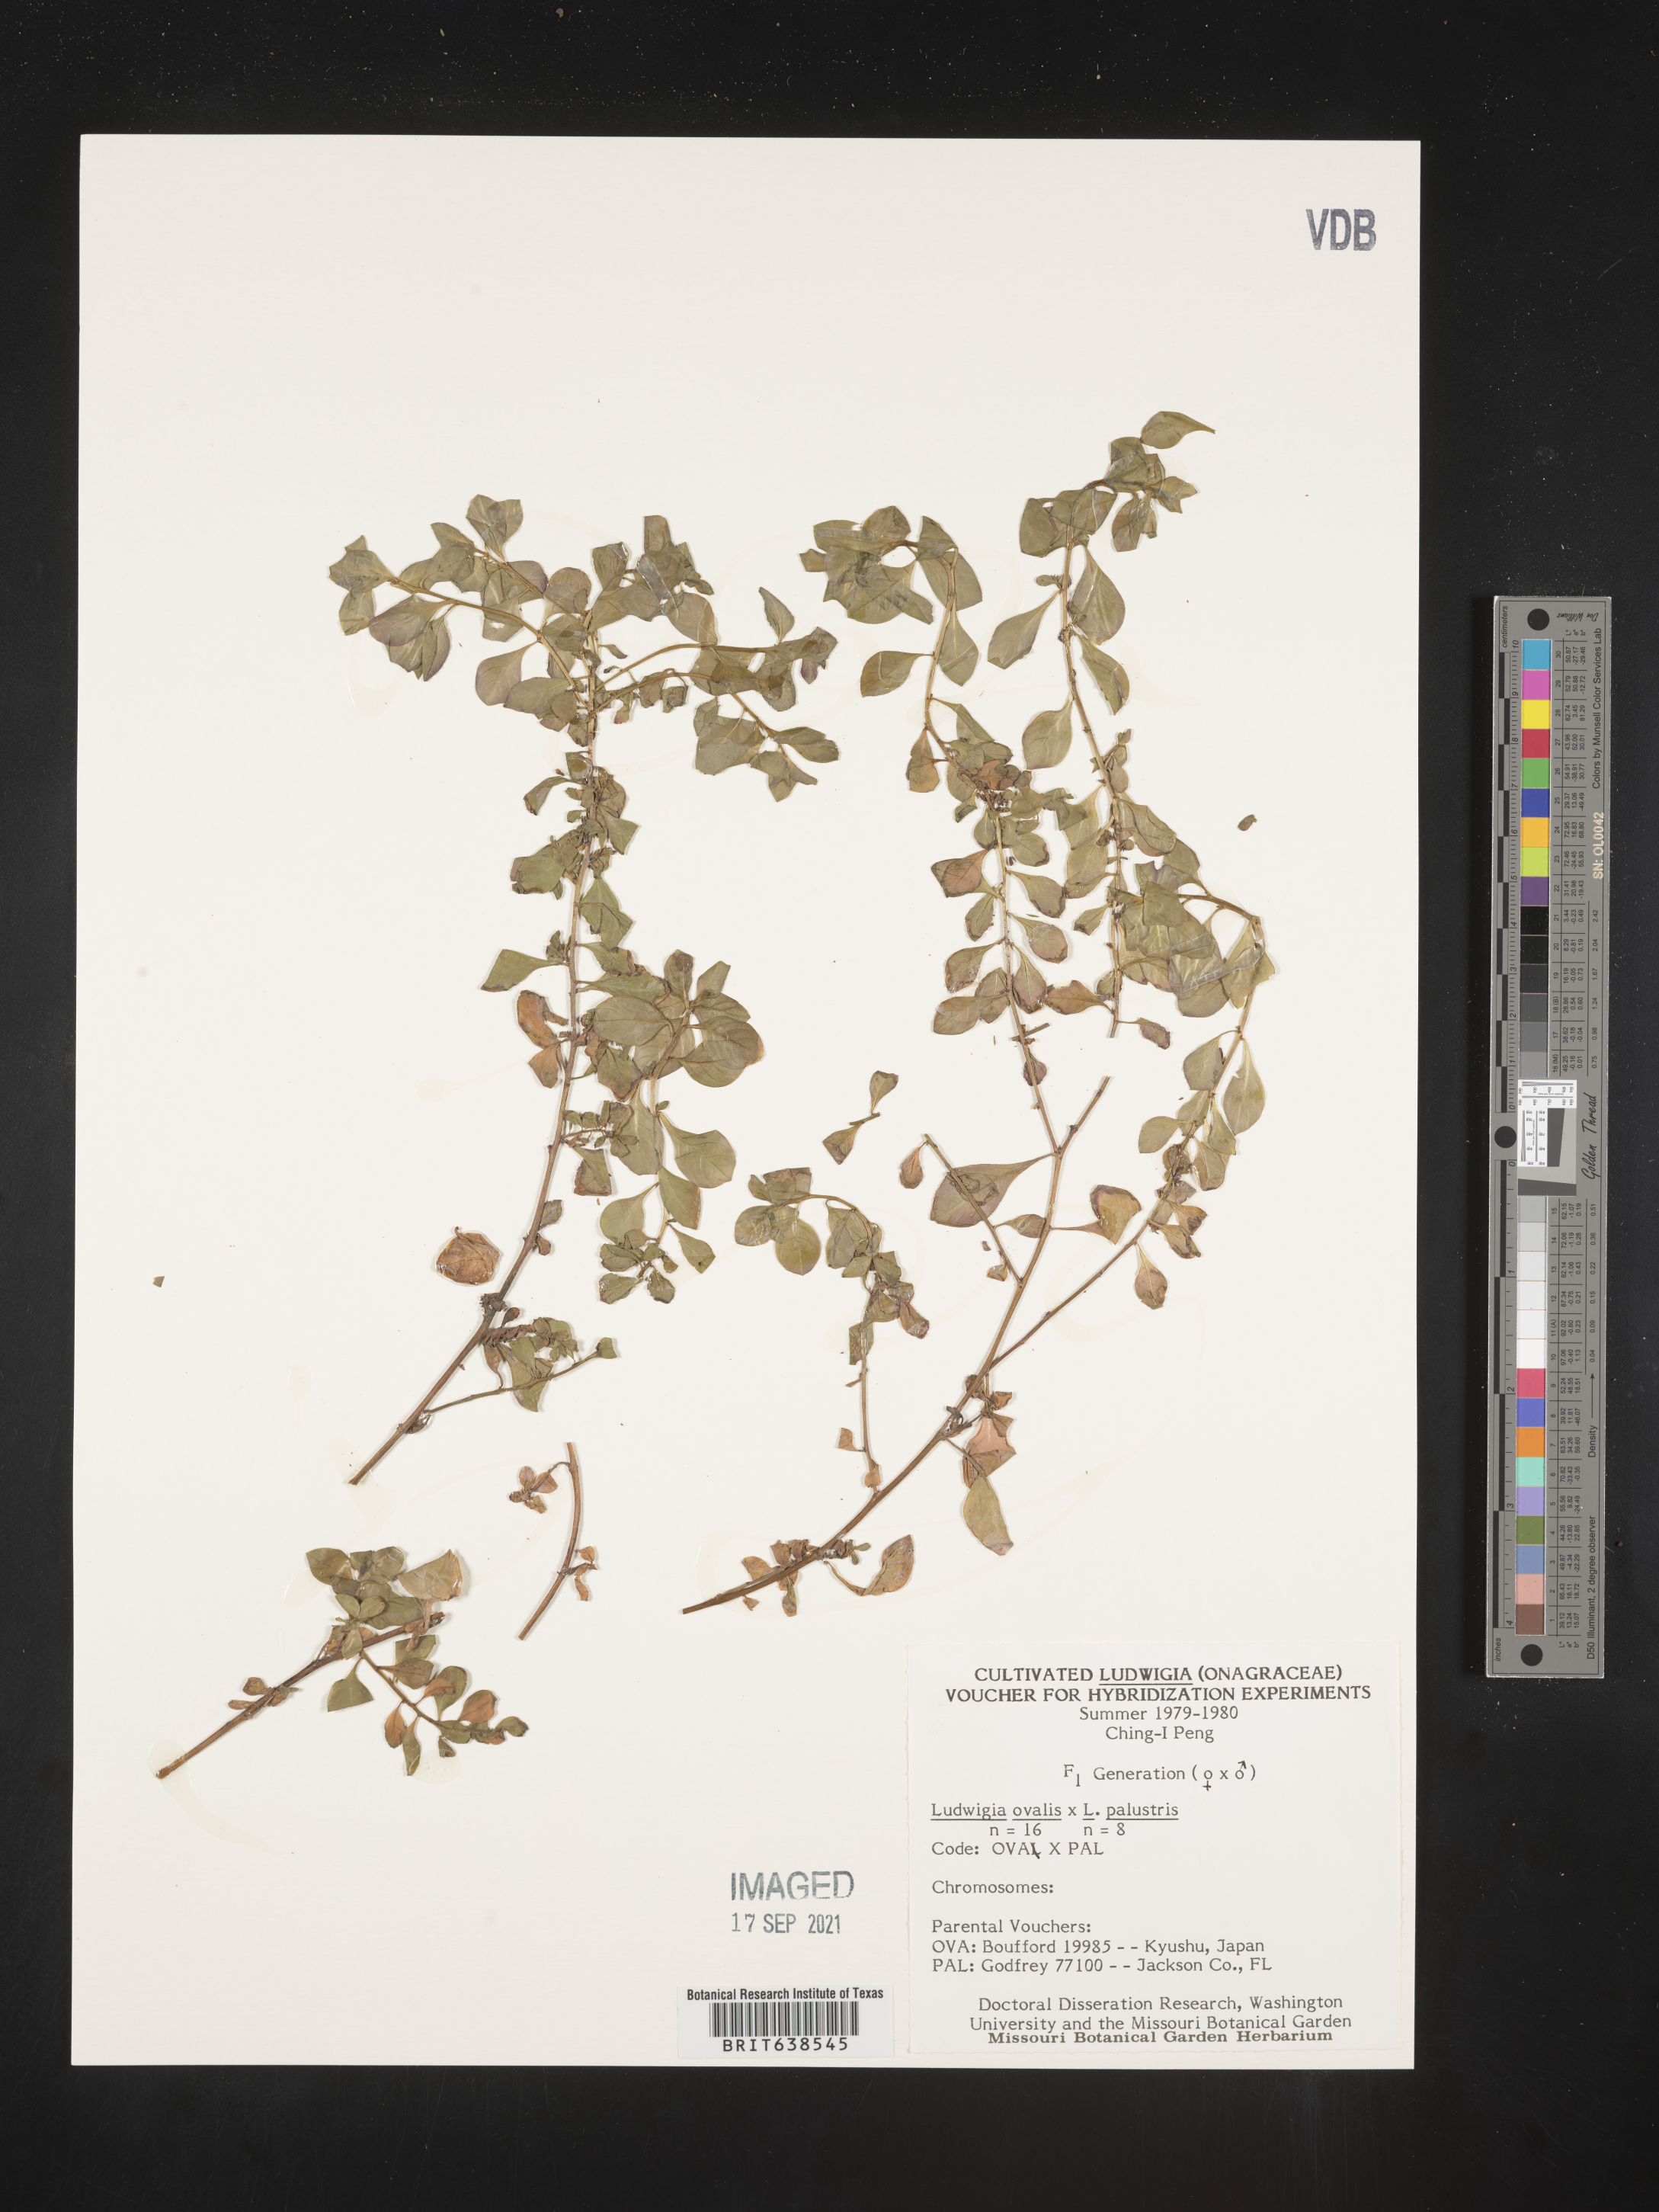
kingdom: Plantae
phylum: Tracheophyta
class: Magnoliopsida
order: Myrtales
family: Onagraceae
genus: Ludwigia
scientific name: Ludwigia
